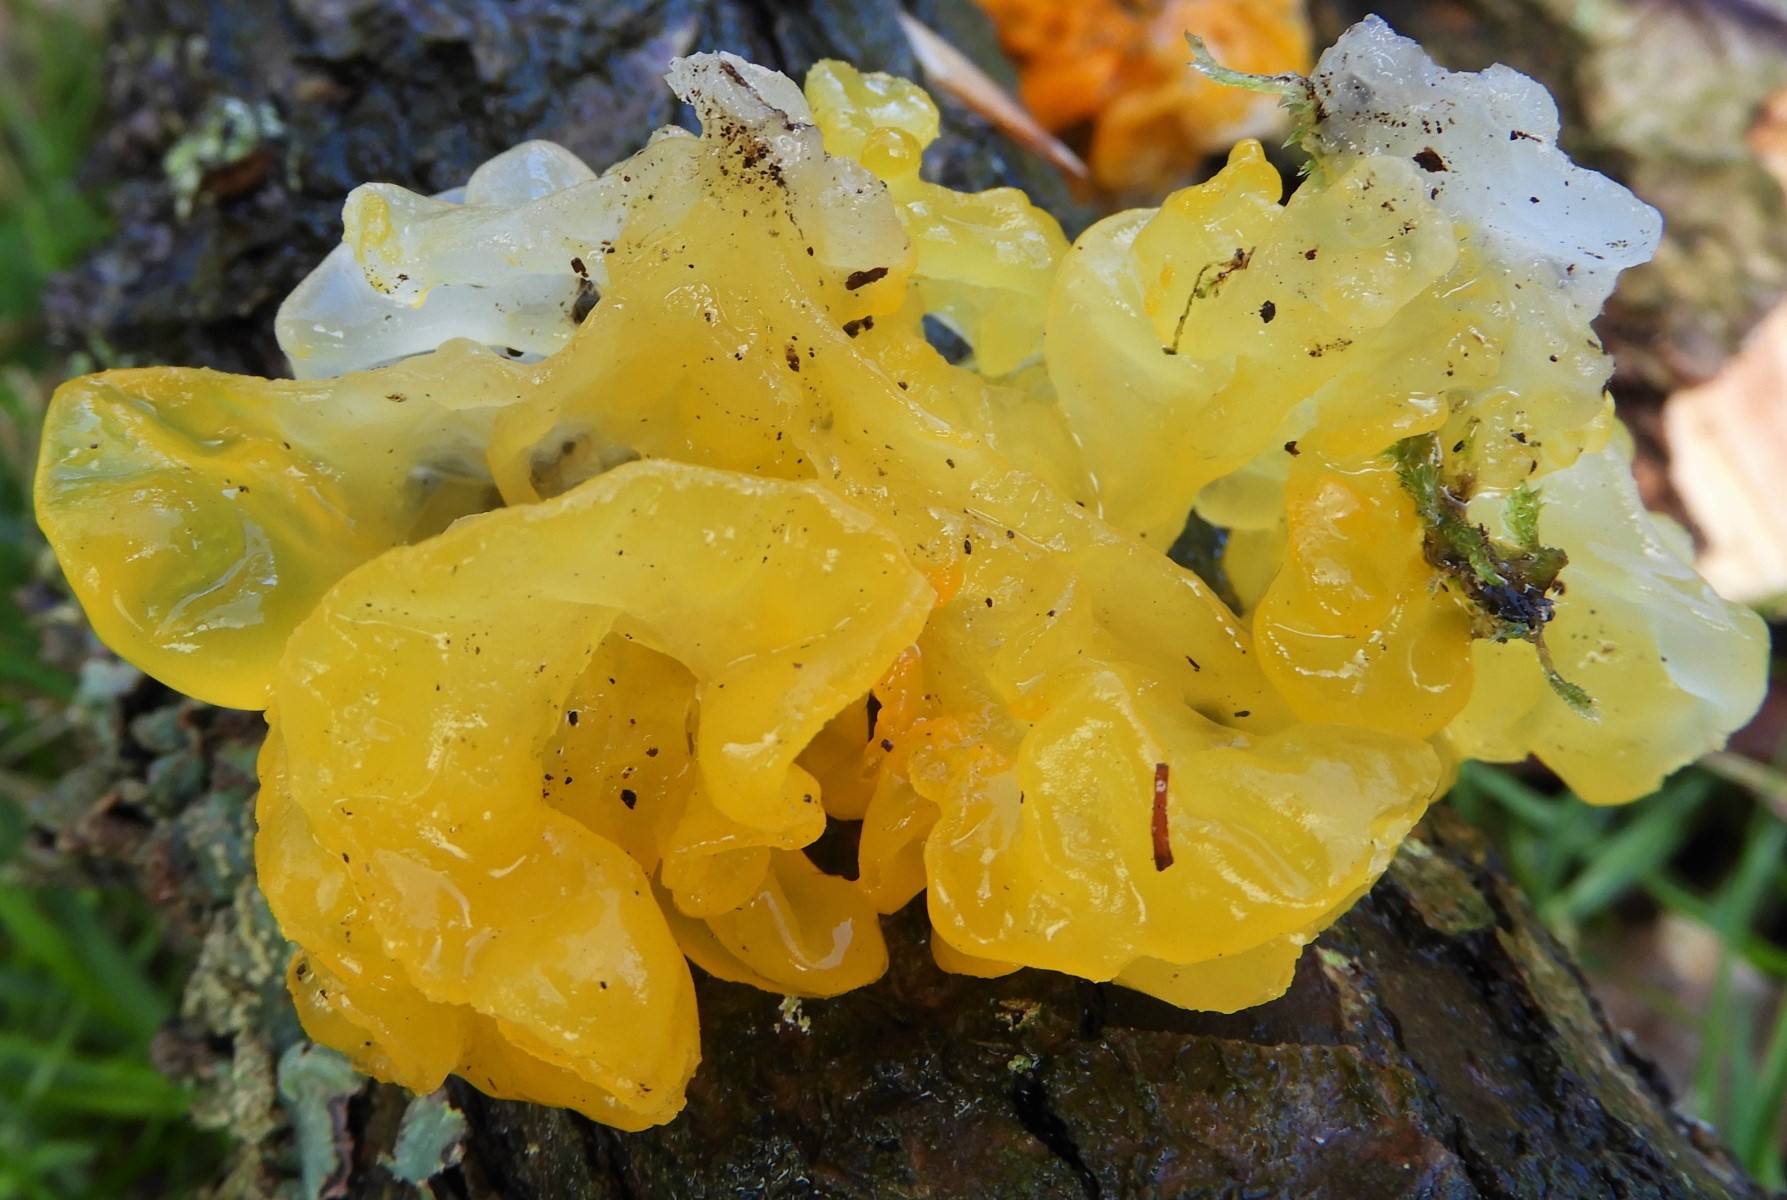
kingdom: Fungi
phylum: Basidiomycota
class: Tremellomycetes
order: Tremellales
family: Tremellaceae
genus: Tremella
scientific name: Tremella mesenterica
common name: gul bævresvamp
